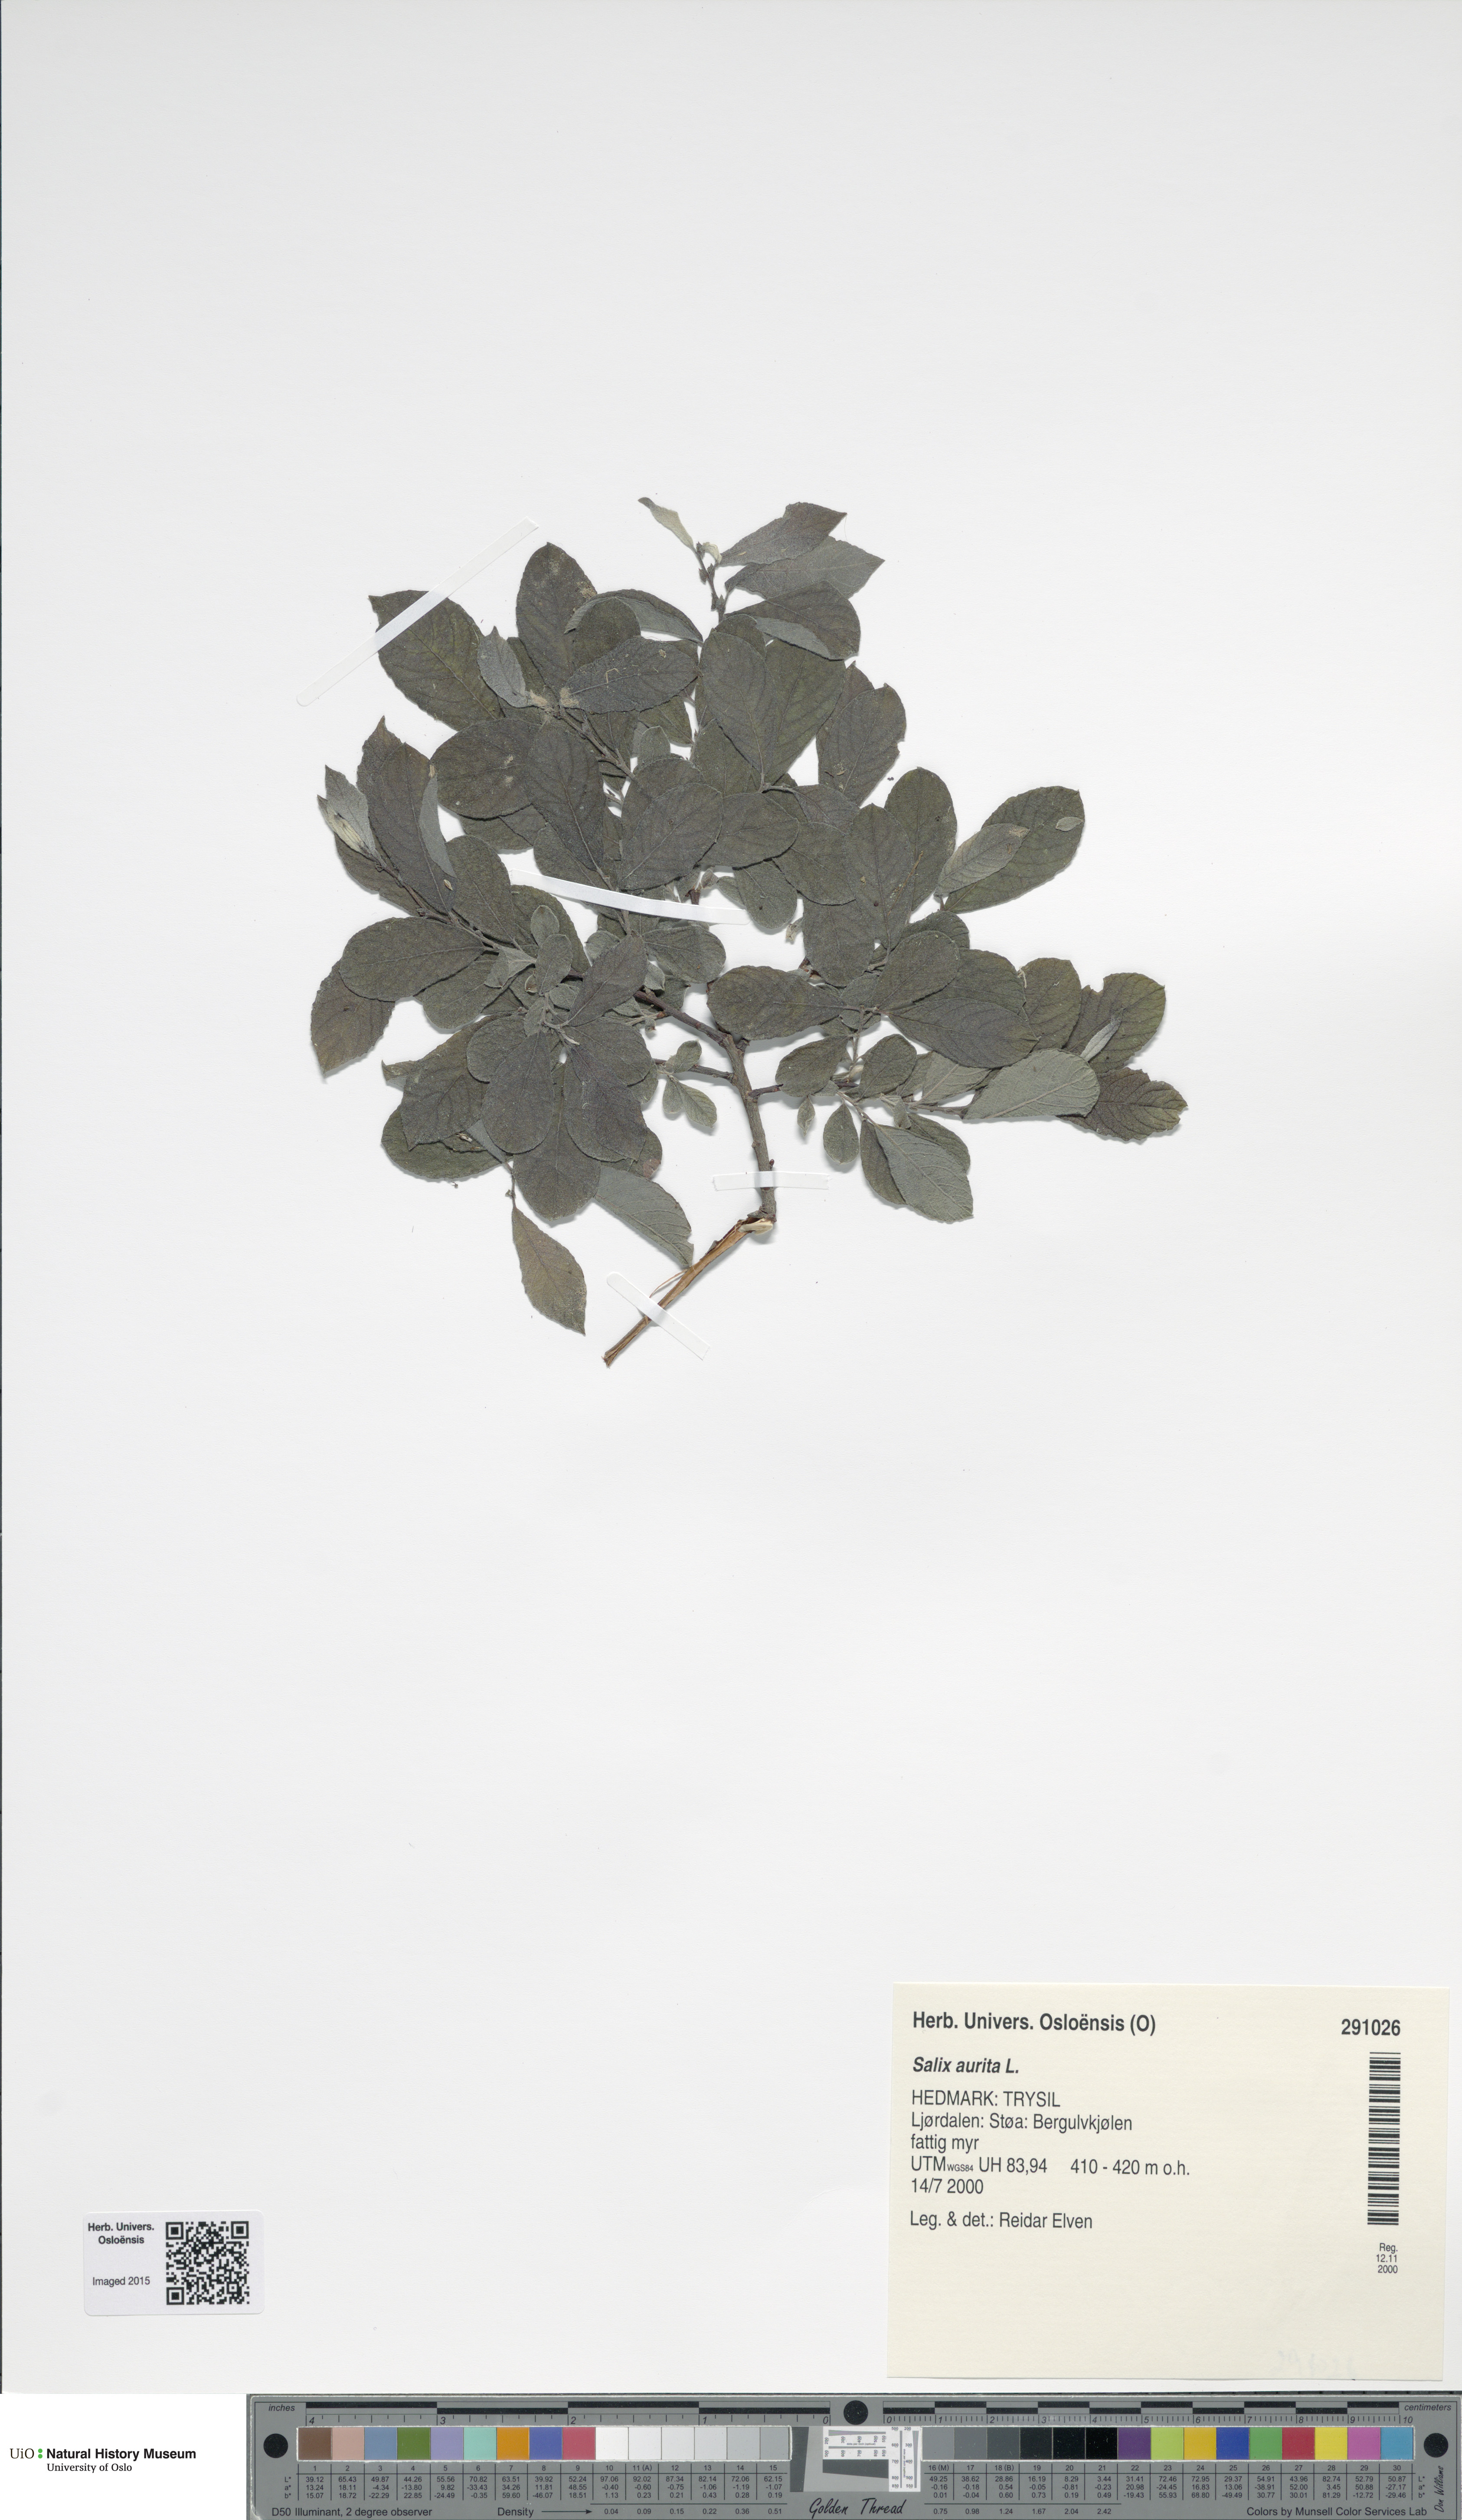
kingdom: Plantae
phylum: Tracheophyta
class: Magnoliopsida
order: Malpighiales
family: Salicaceae
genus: Salix
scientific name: Salix aurita
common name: Eared willow
